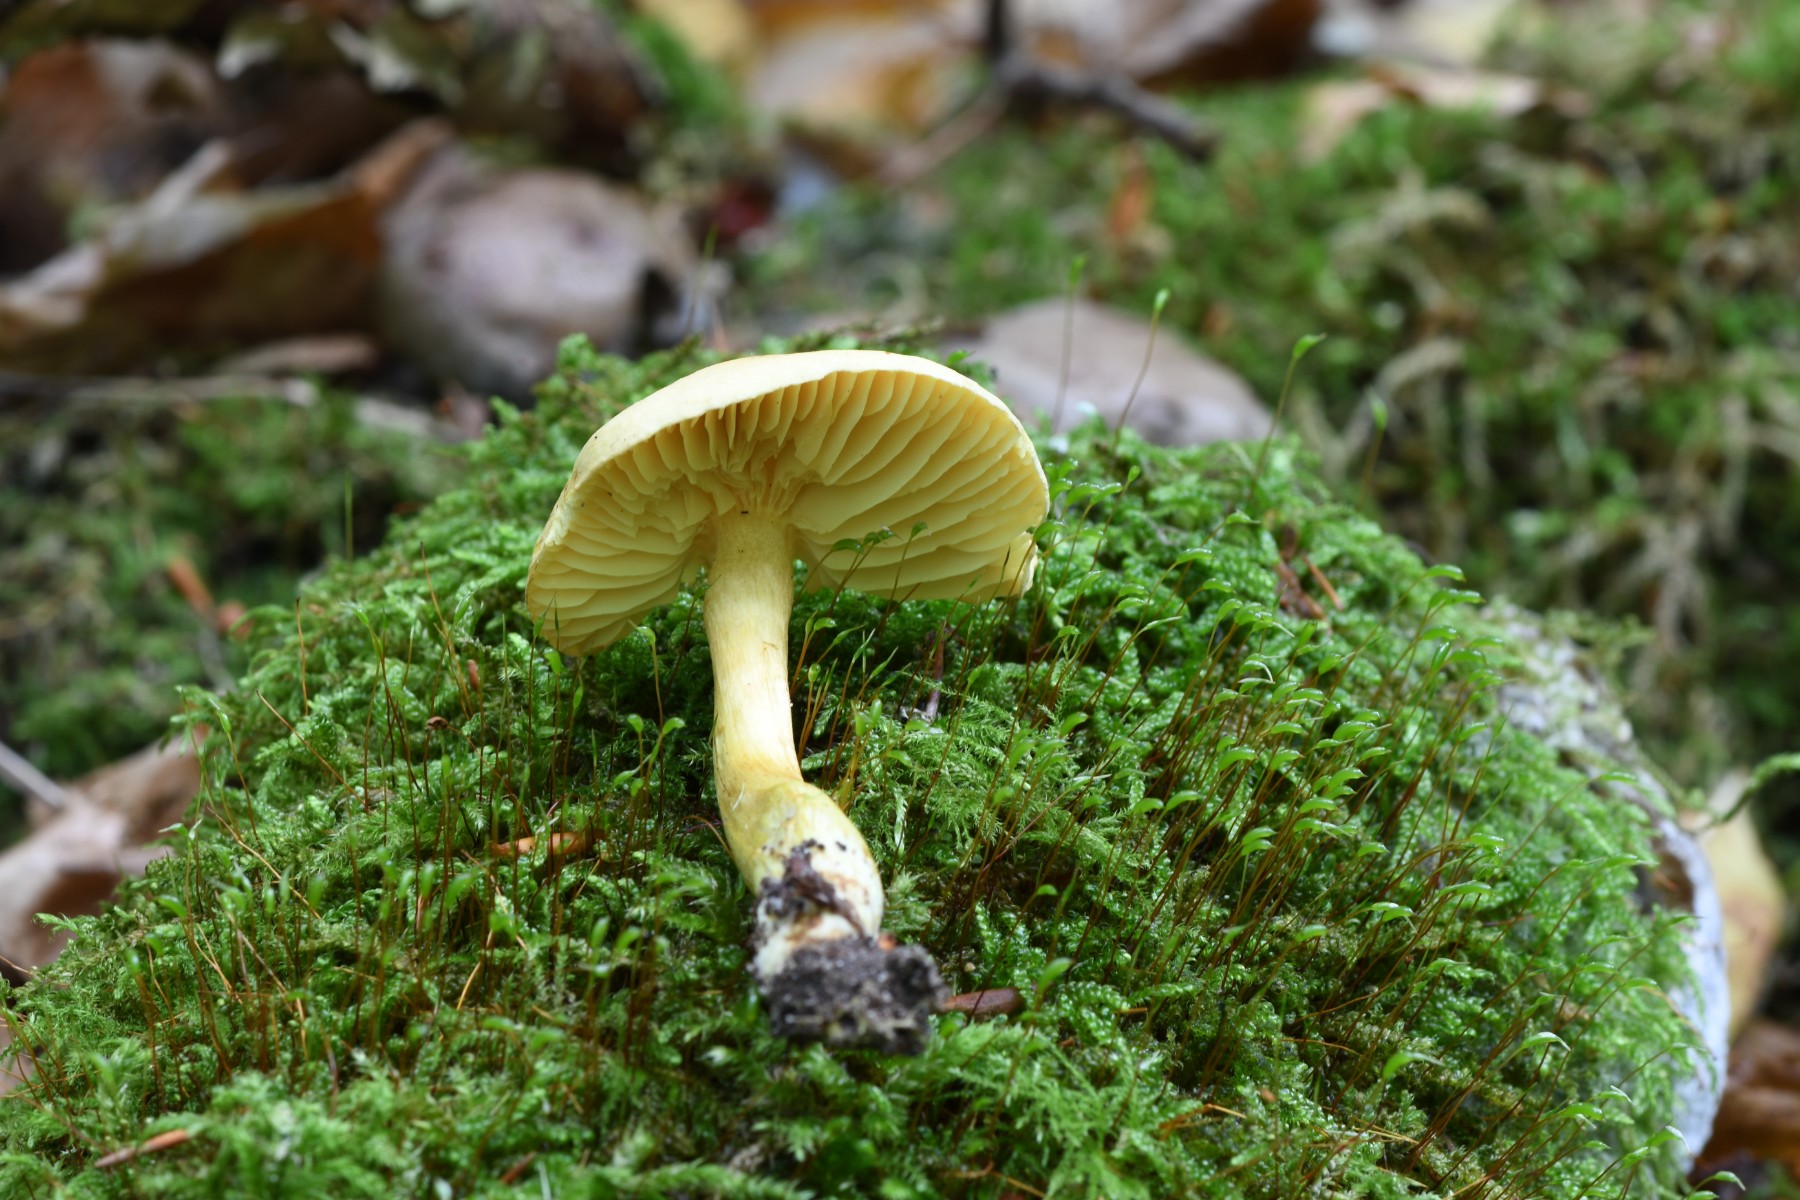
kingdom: Fungi
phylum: Basidiomycota
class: Agaricomycetes
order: Agaricales
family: Tricholomataceae
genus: Tricholoma
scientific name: Tricholoma sulphureum
